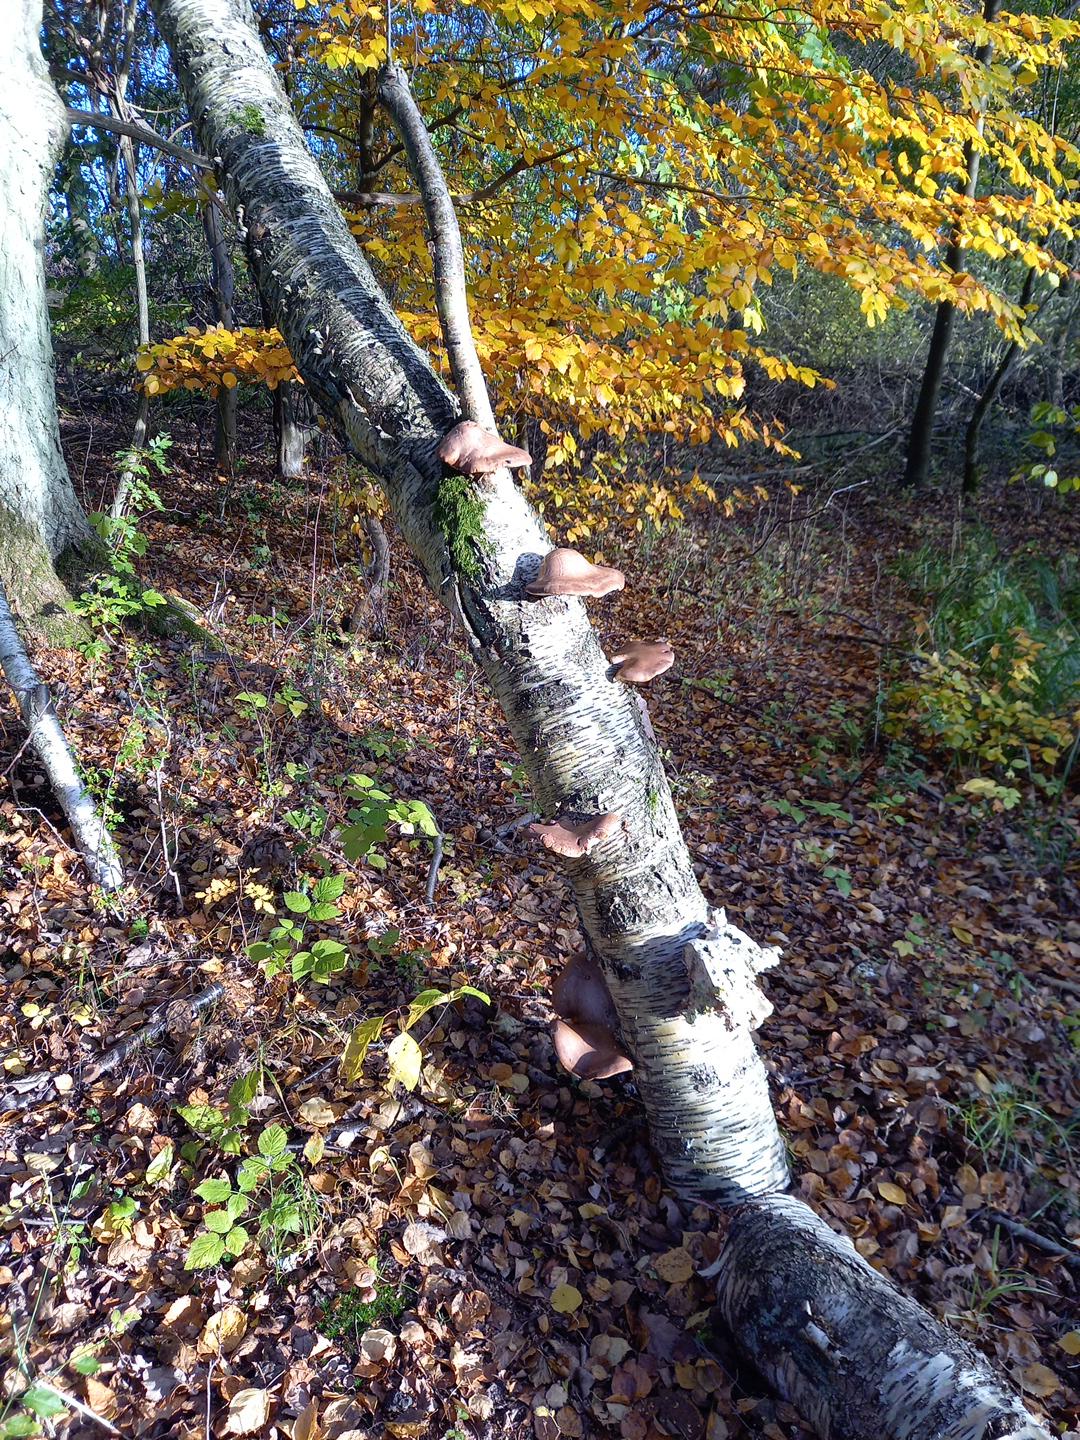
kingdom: Fungi
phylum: Basidiomycota
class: Agaricomycetes
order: Polyporales
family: Fomitopsidaceae
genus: Fomitopsis
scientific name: Fomitopsis betulina
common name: birkeporesvamp
